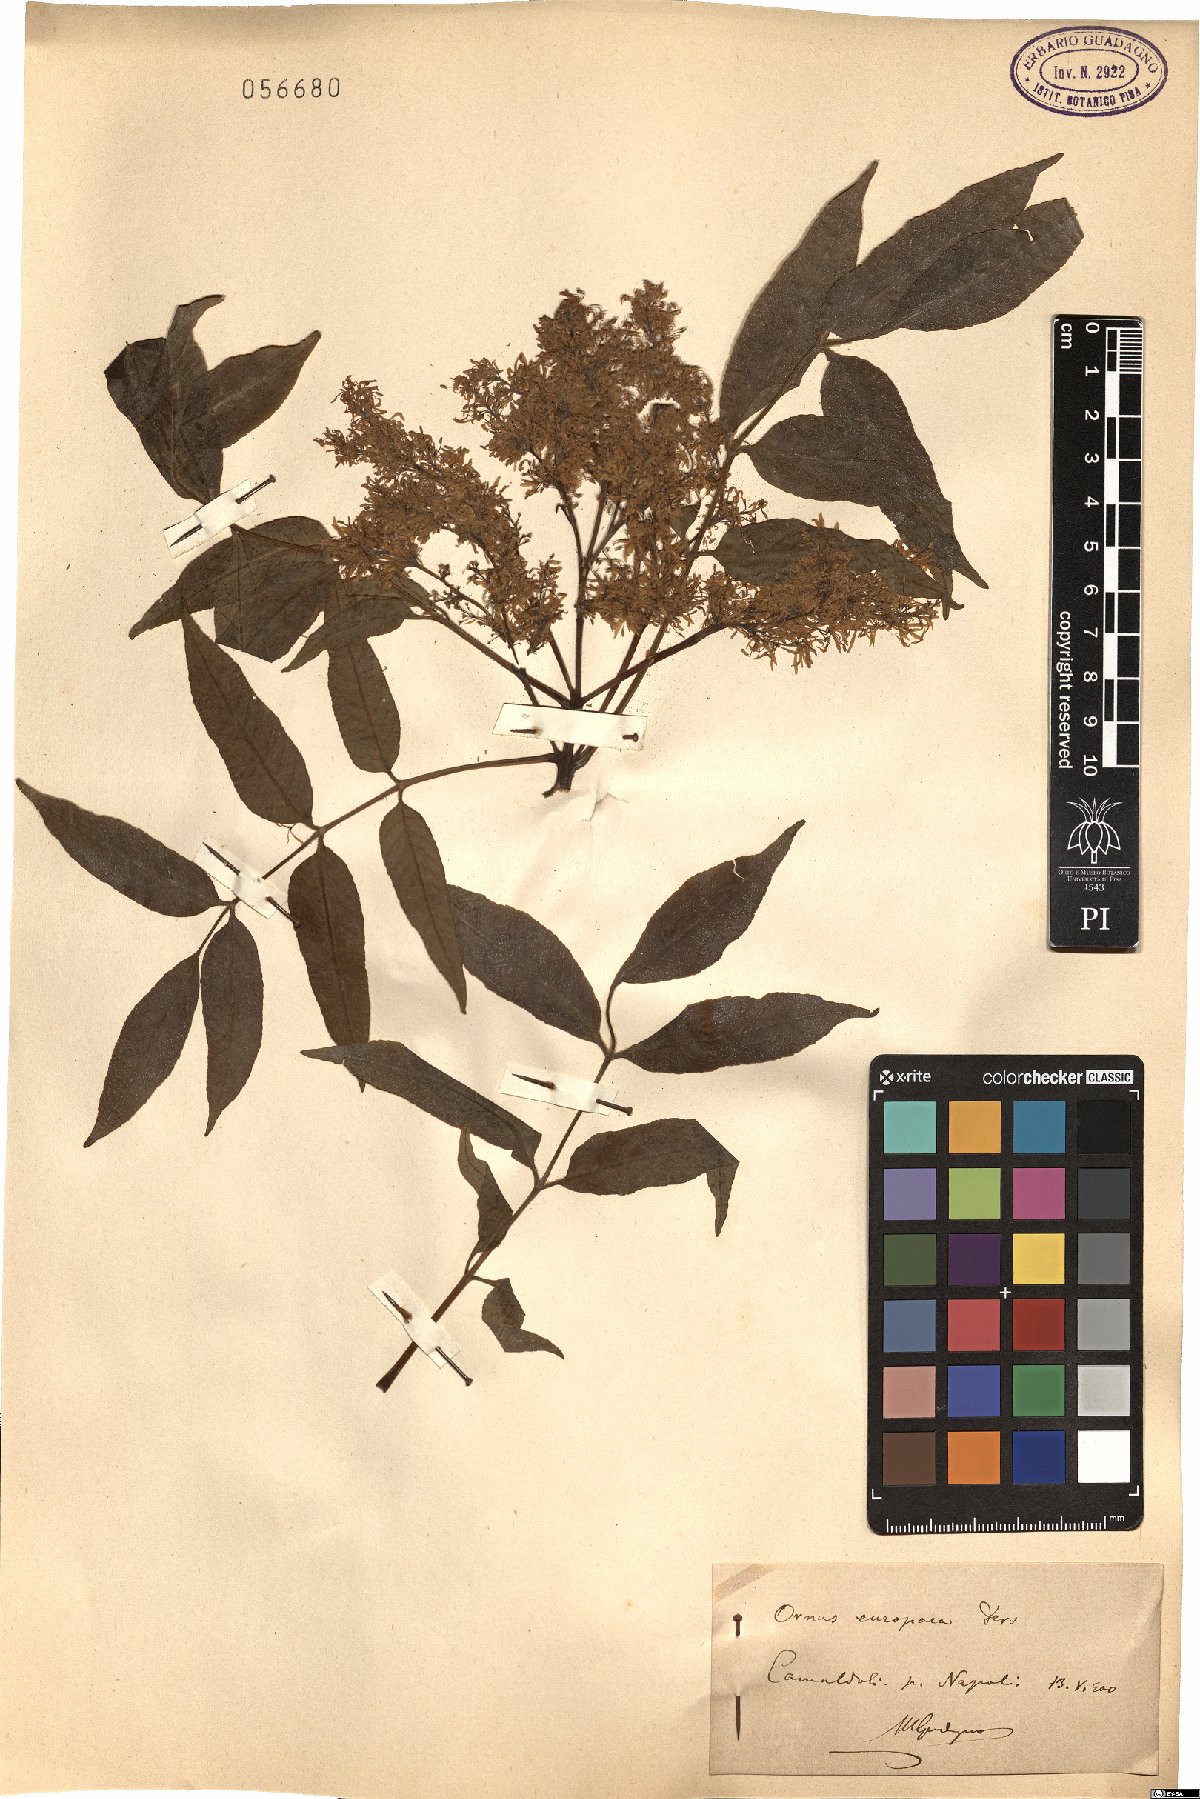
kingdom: Plantae
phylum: Tracheophyta
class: Magnoliopsida
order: Lamiales
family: Oleaceae
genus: Fraxinus
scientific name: Fraxinus ornus
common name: Manna ash
